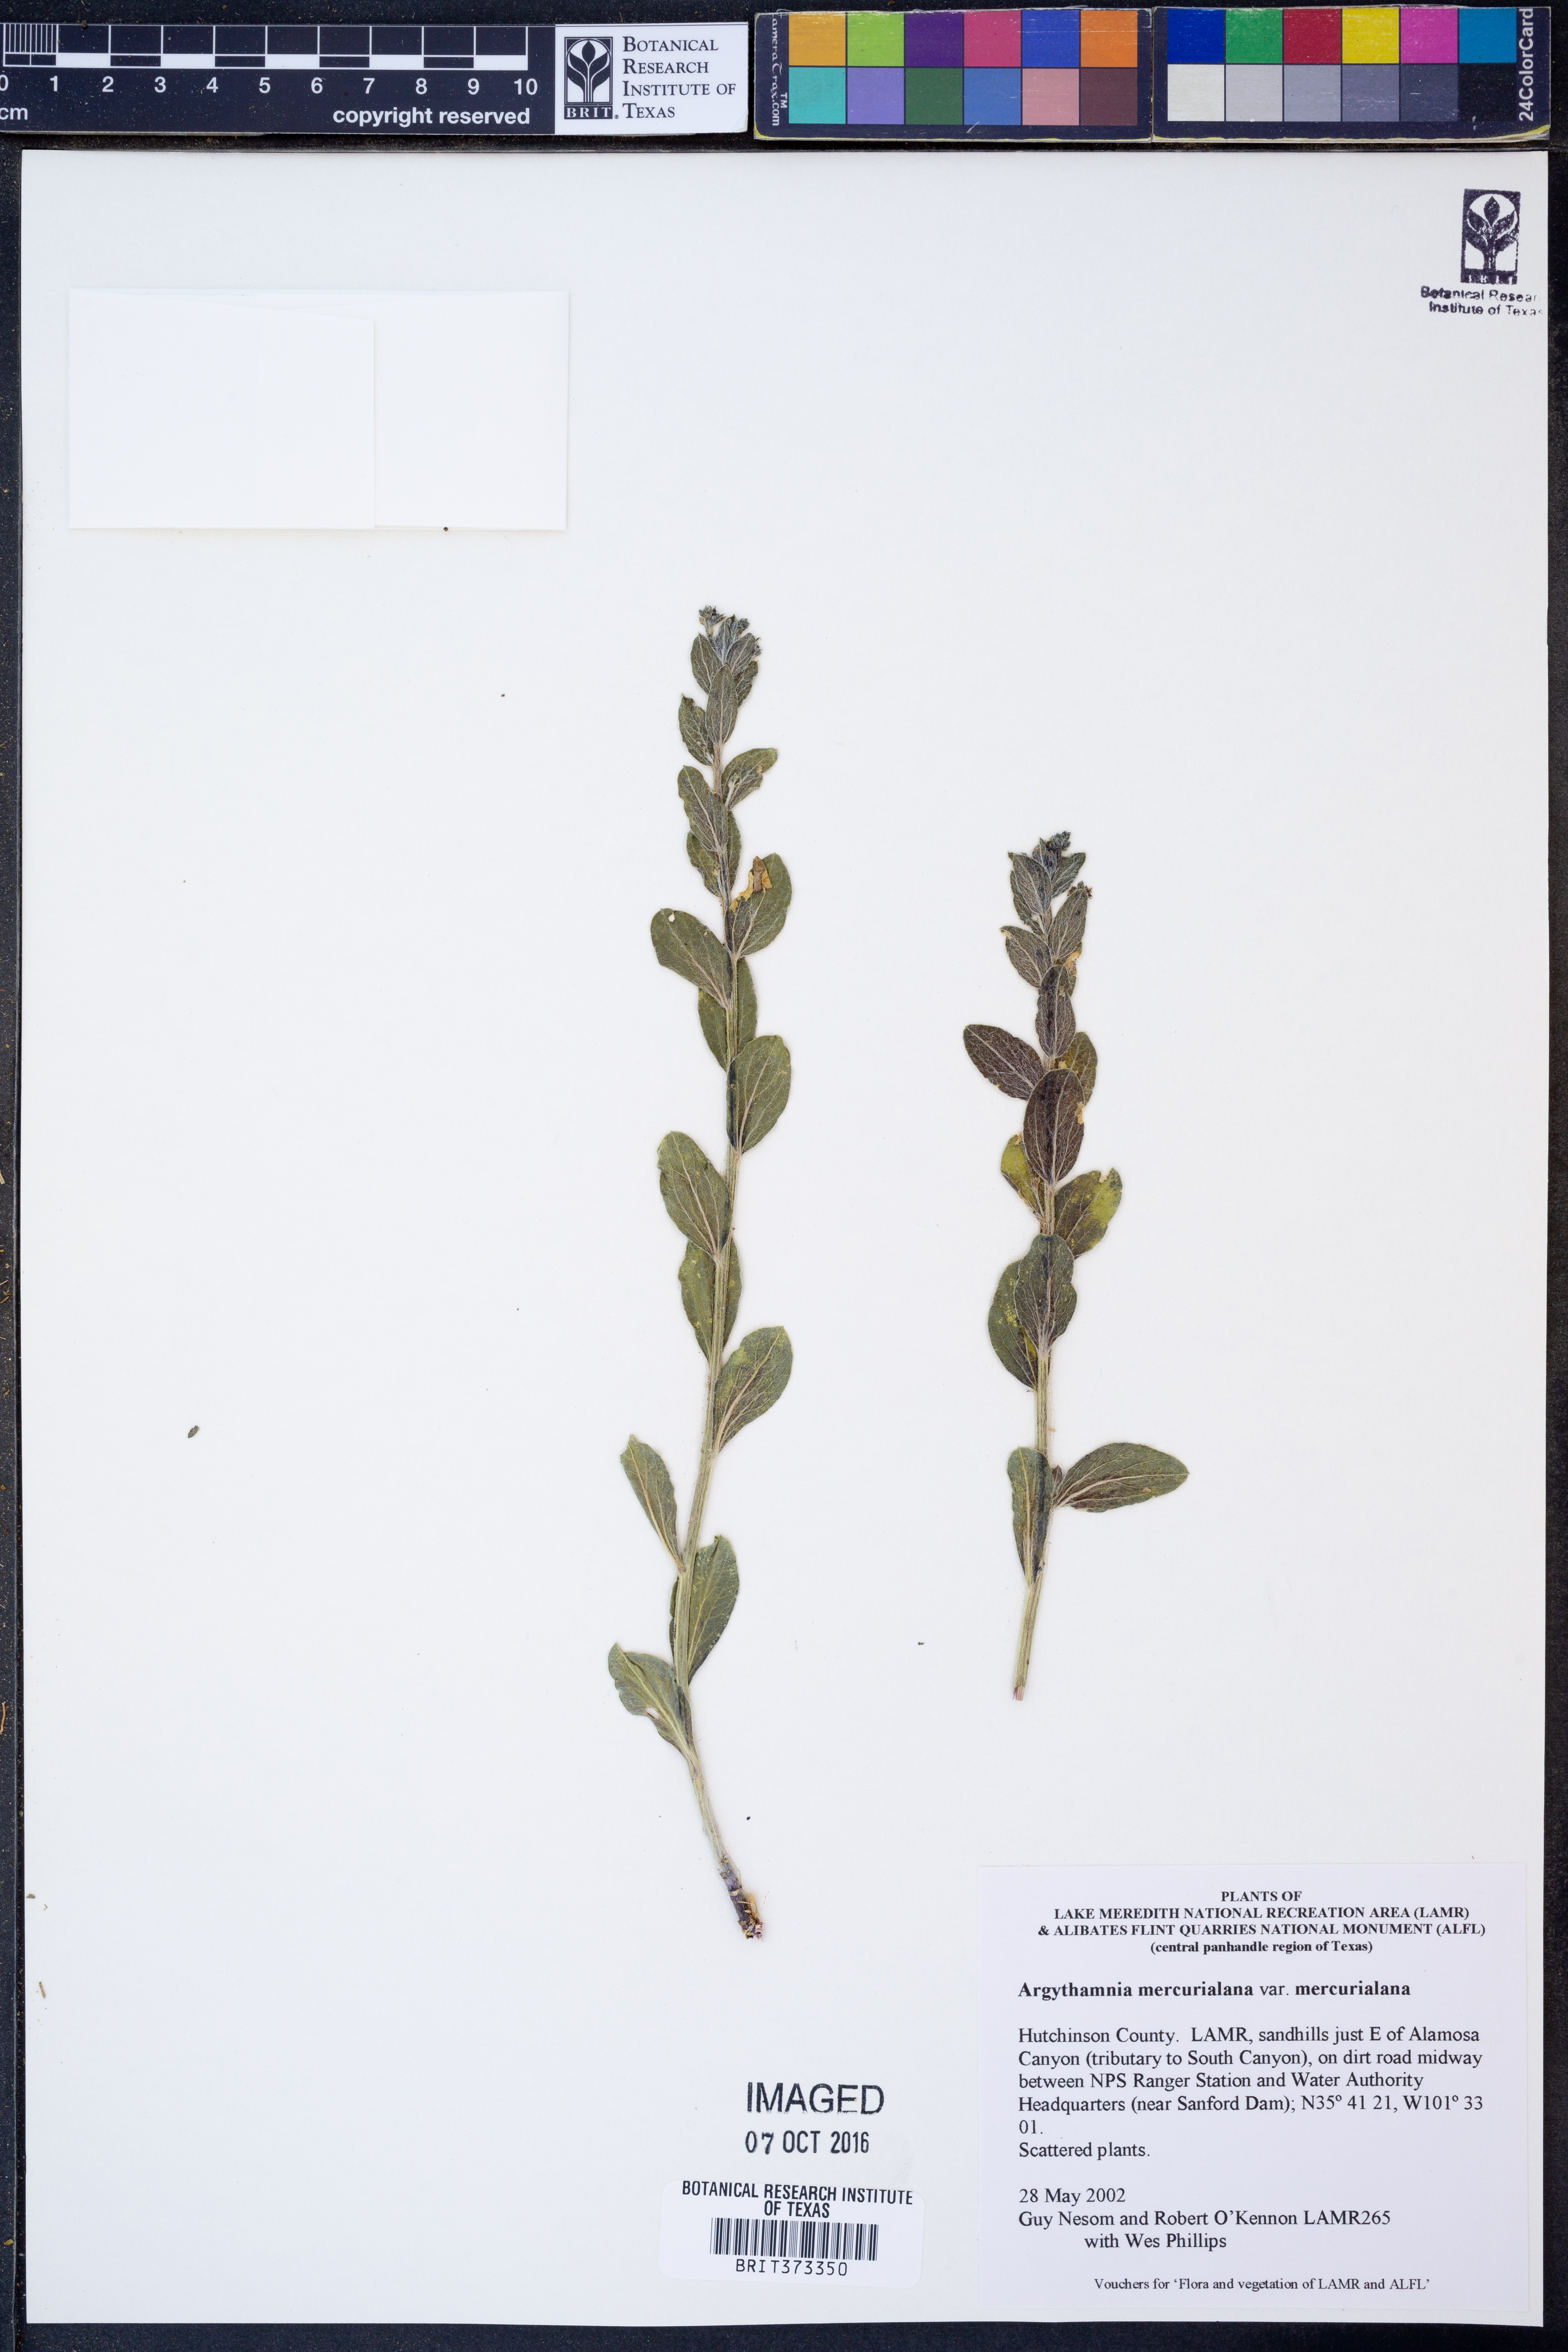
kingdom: Plantae
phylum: Tracheophyta
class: Magnoliopsida
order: Malpighiales
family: Euphorbiaceae
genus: Ditaxis
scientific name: Ditaxis mercurialina
